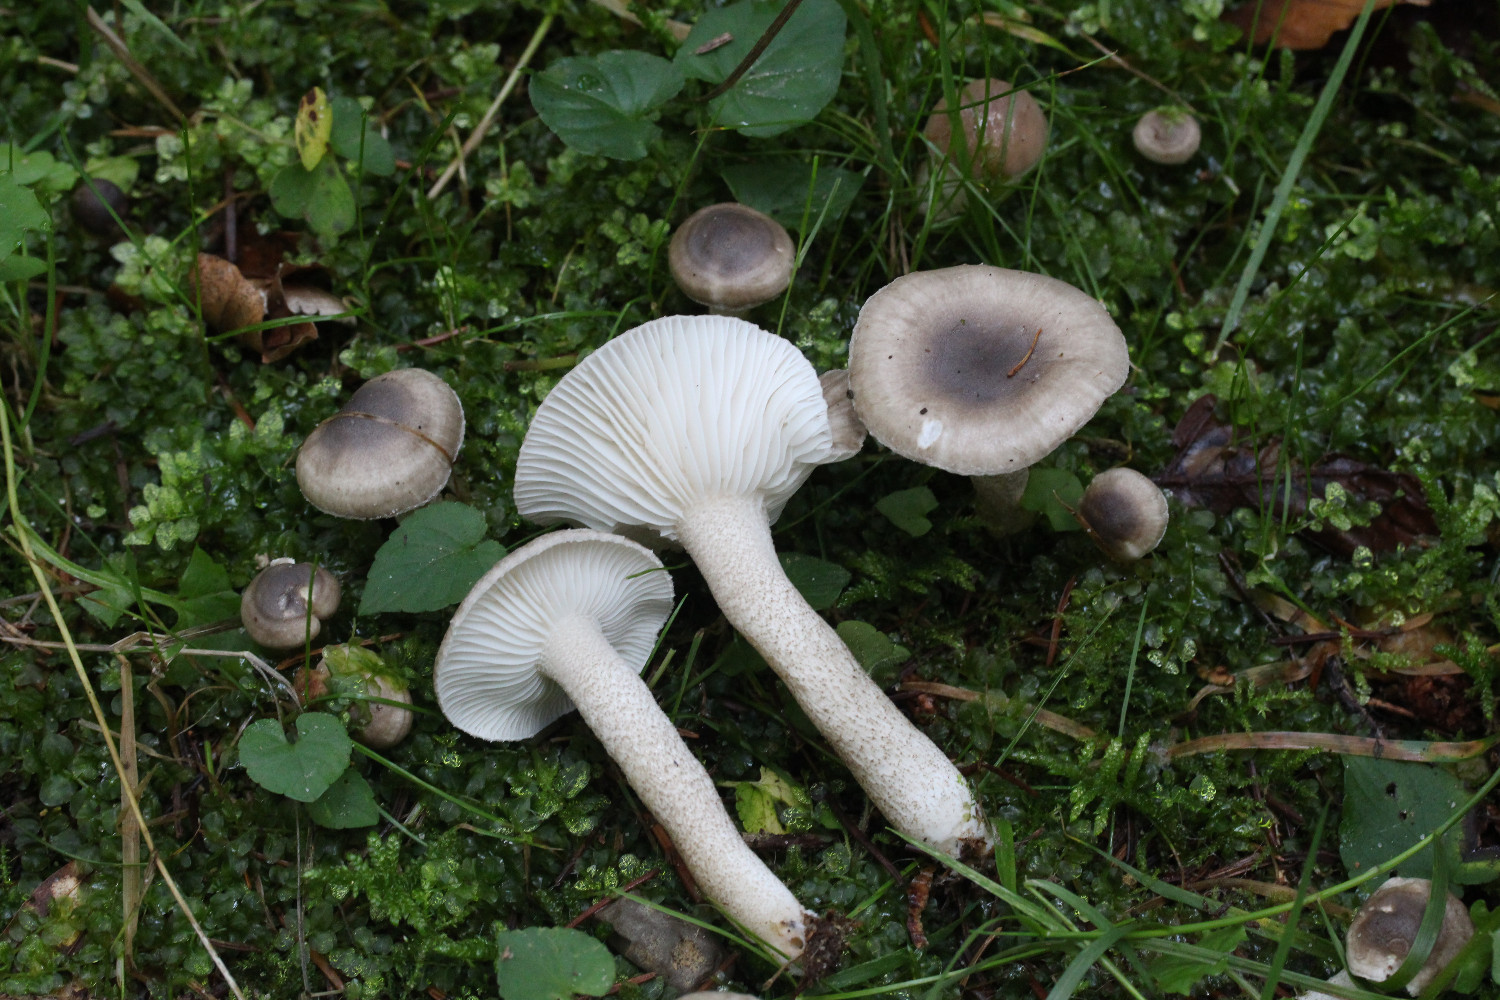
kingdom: Fungi
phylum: Basidiomycota
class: Agaricomycetes
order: Agaricales
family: Hygrophoraceae
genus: Hygrophorus
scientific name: Hygrophorus pustulatus
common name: mørkprikket sneglehat
